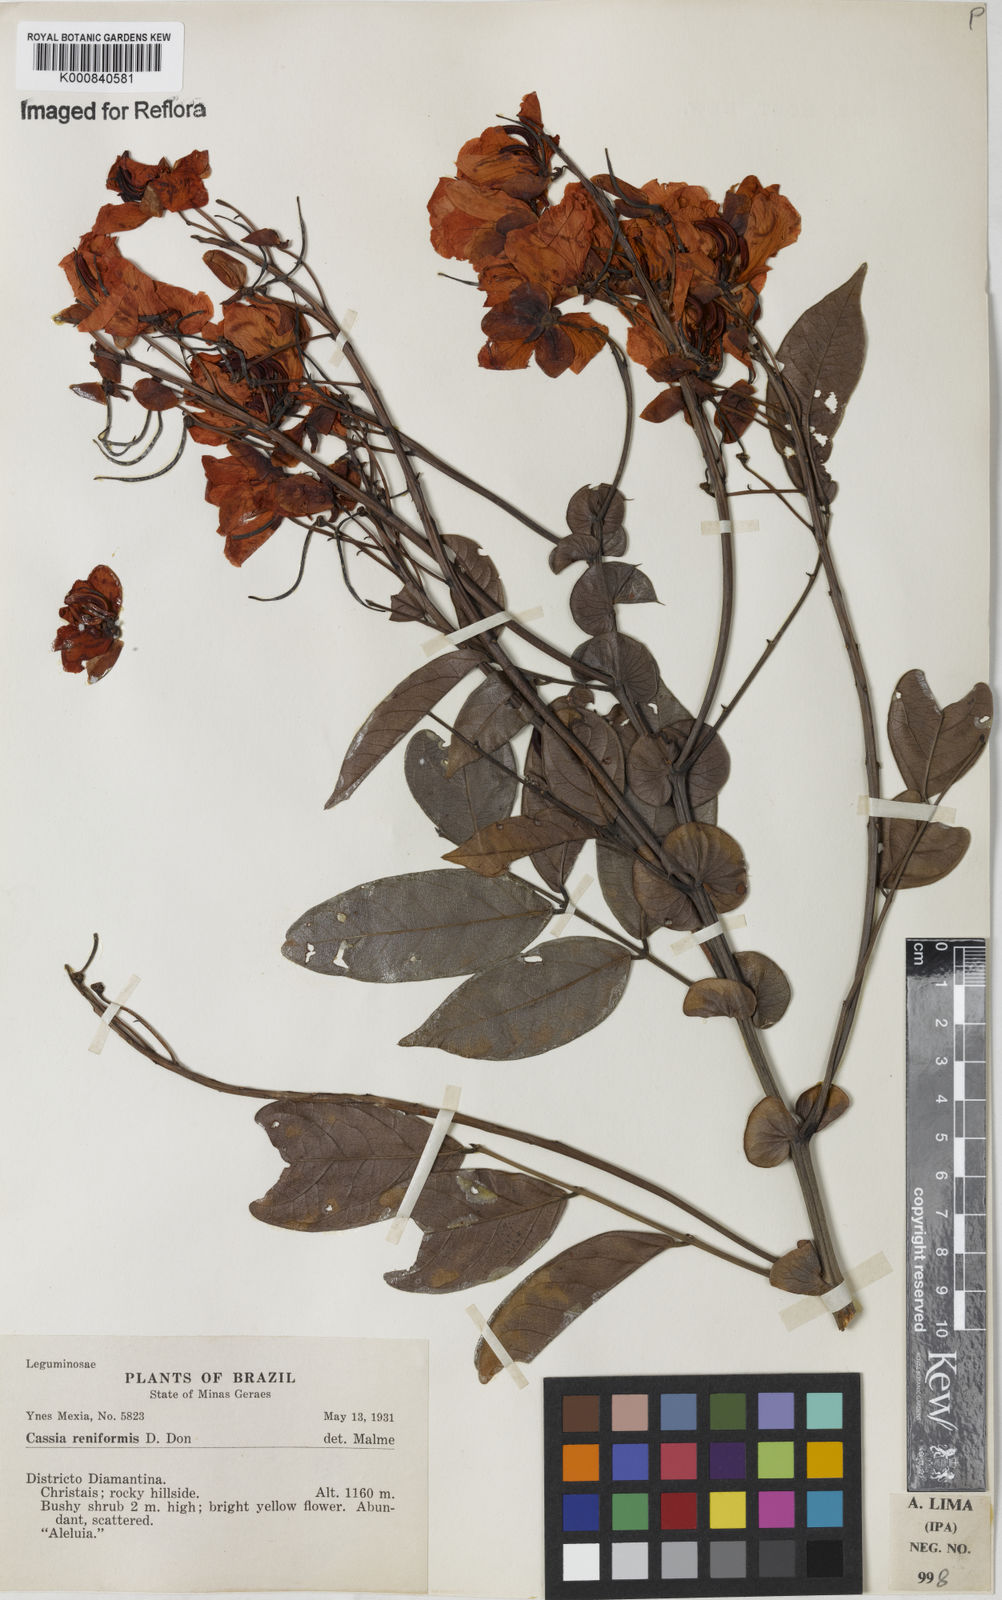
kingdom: Plantae
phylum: Tracheophyta
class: Magnoliopsida
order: Fabales
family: Fabaceae
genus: Senna
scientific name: Senna reniformis
